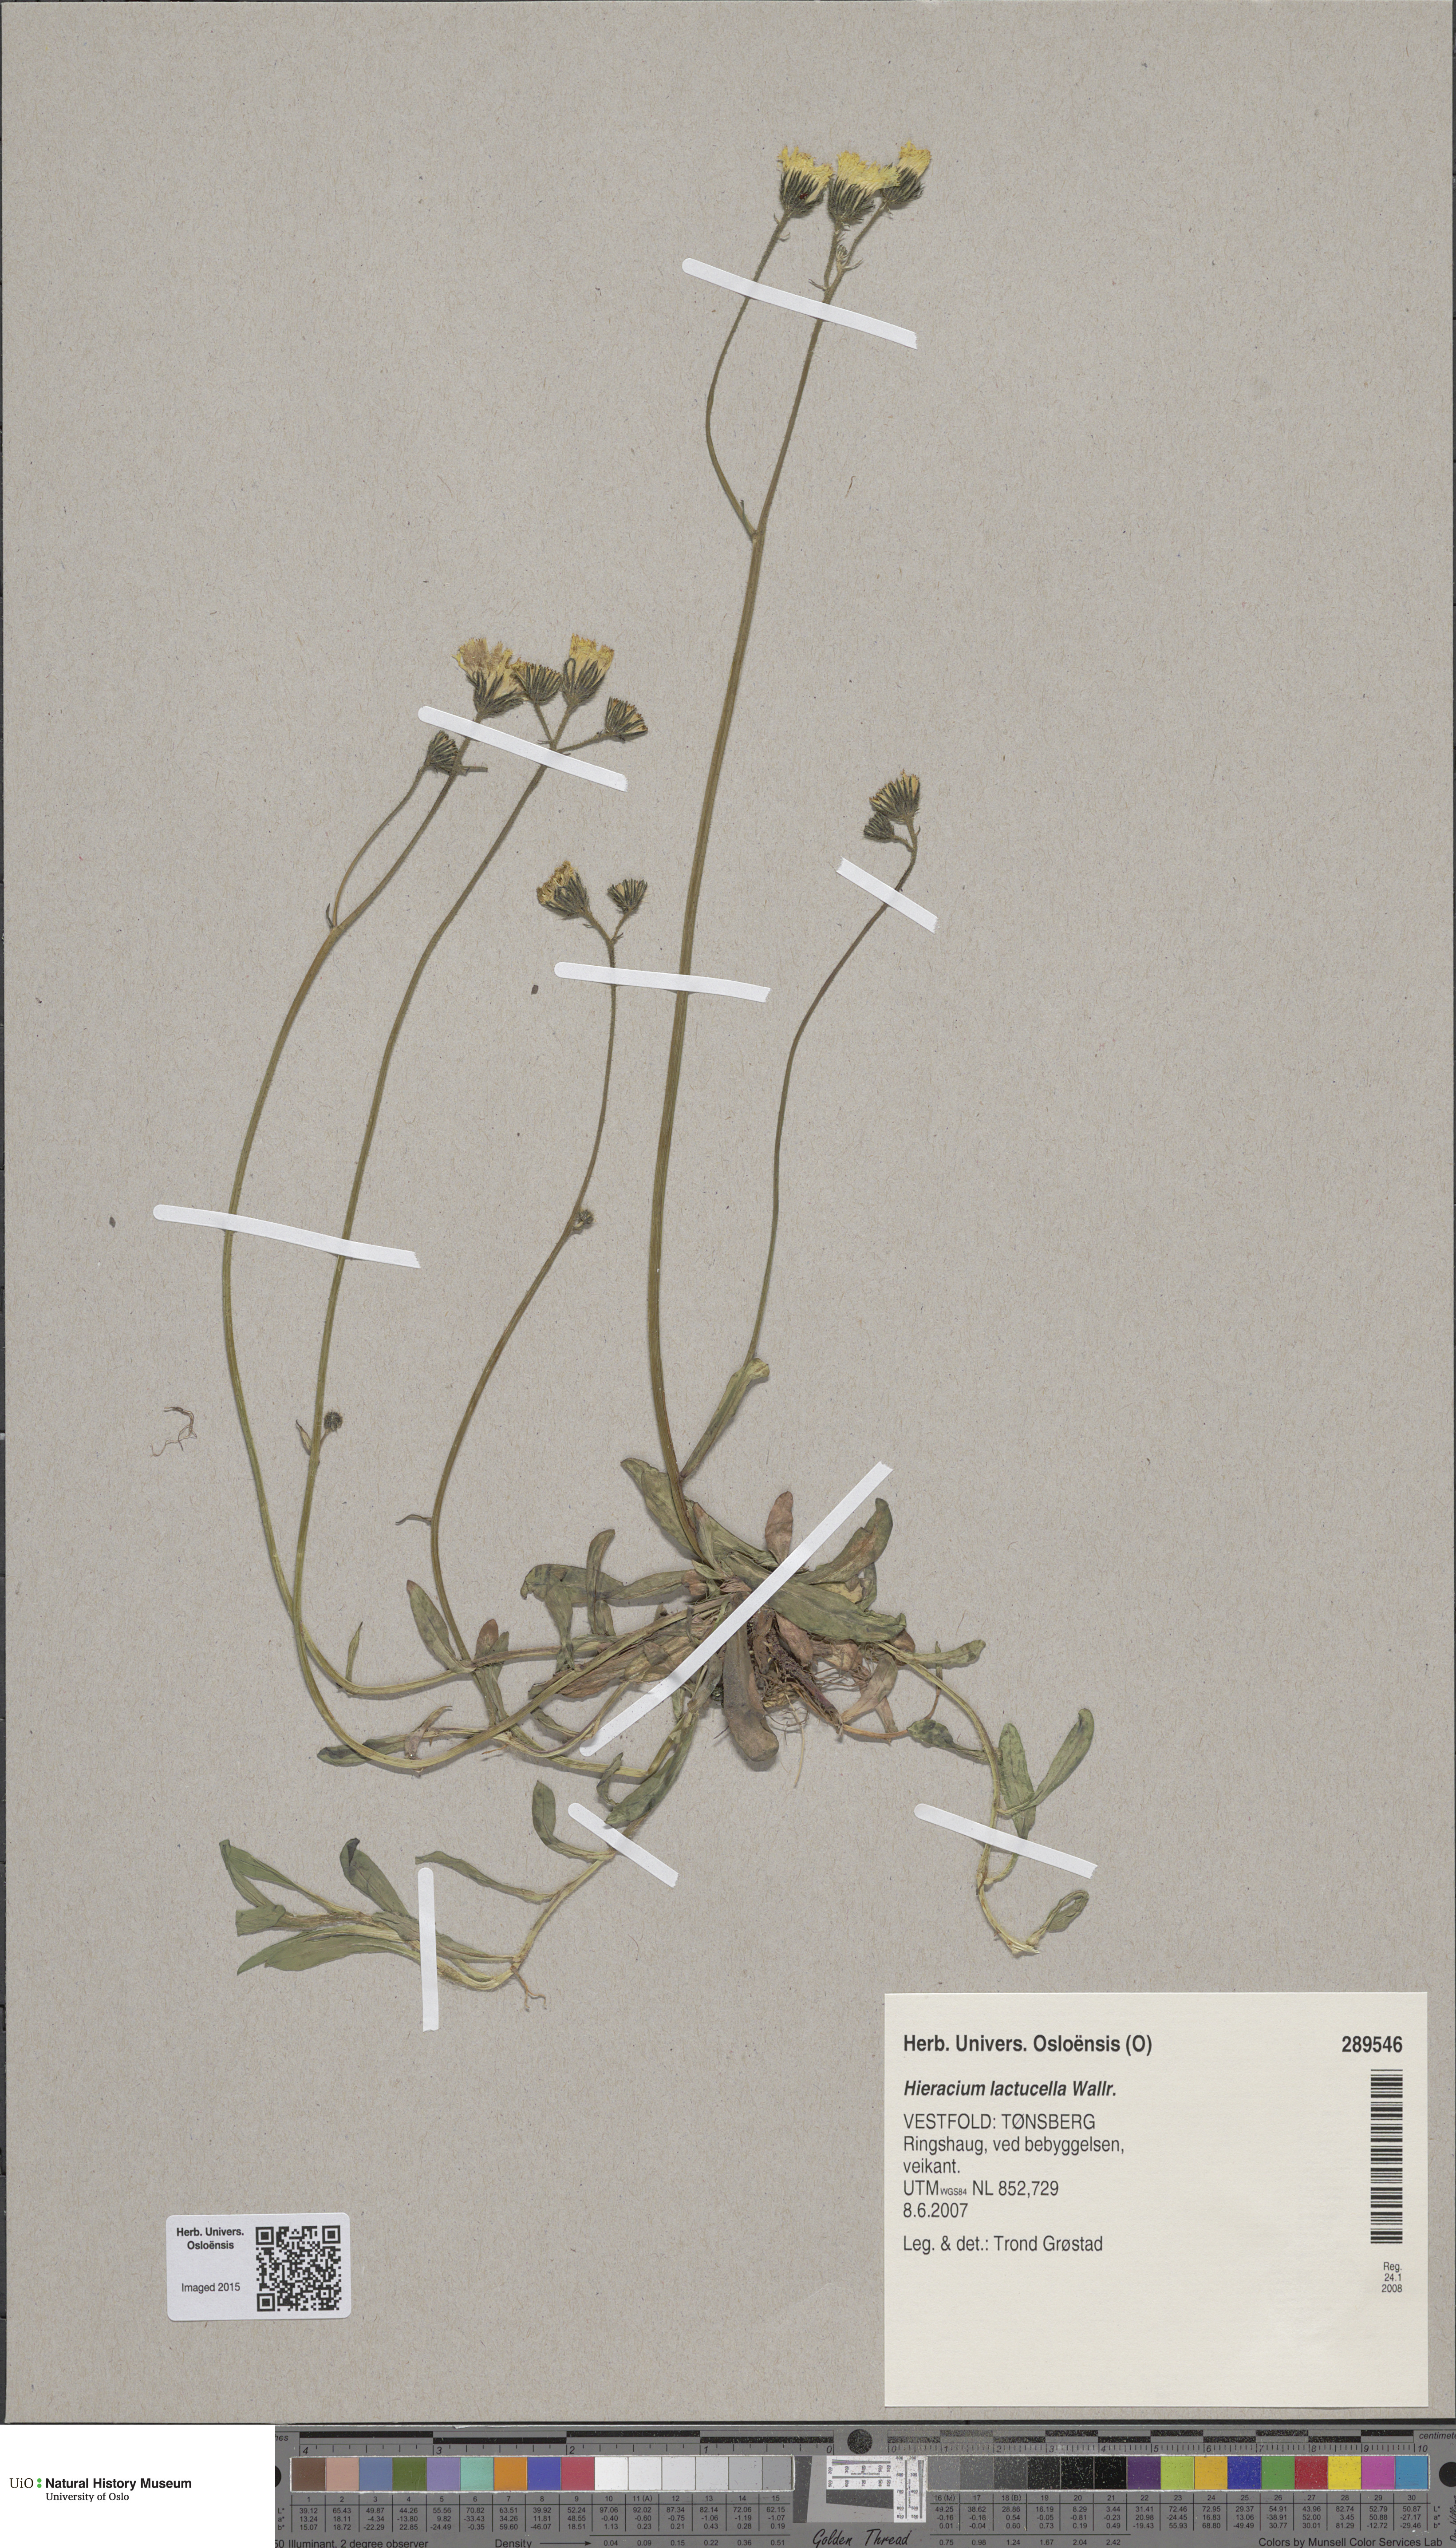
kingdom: Plantae
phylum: Tracheophyta
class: Magnoliopsida
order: Asterales
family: Asteraceae
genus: Pilosella
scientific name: Pilosella lactucella
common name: Glaucous fox-and-cubs
